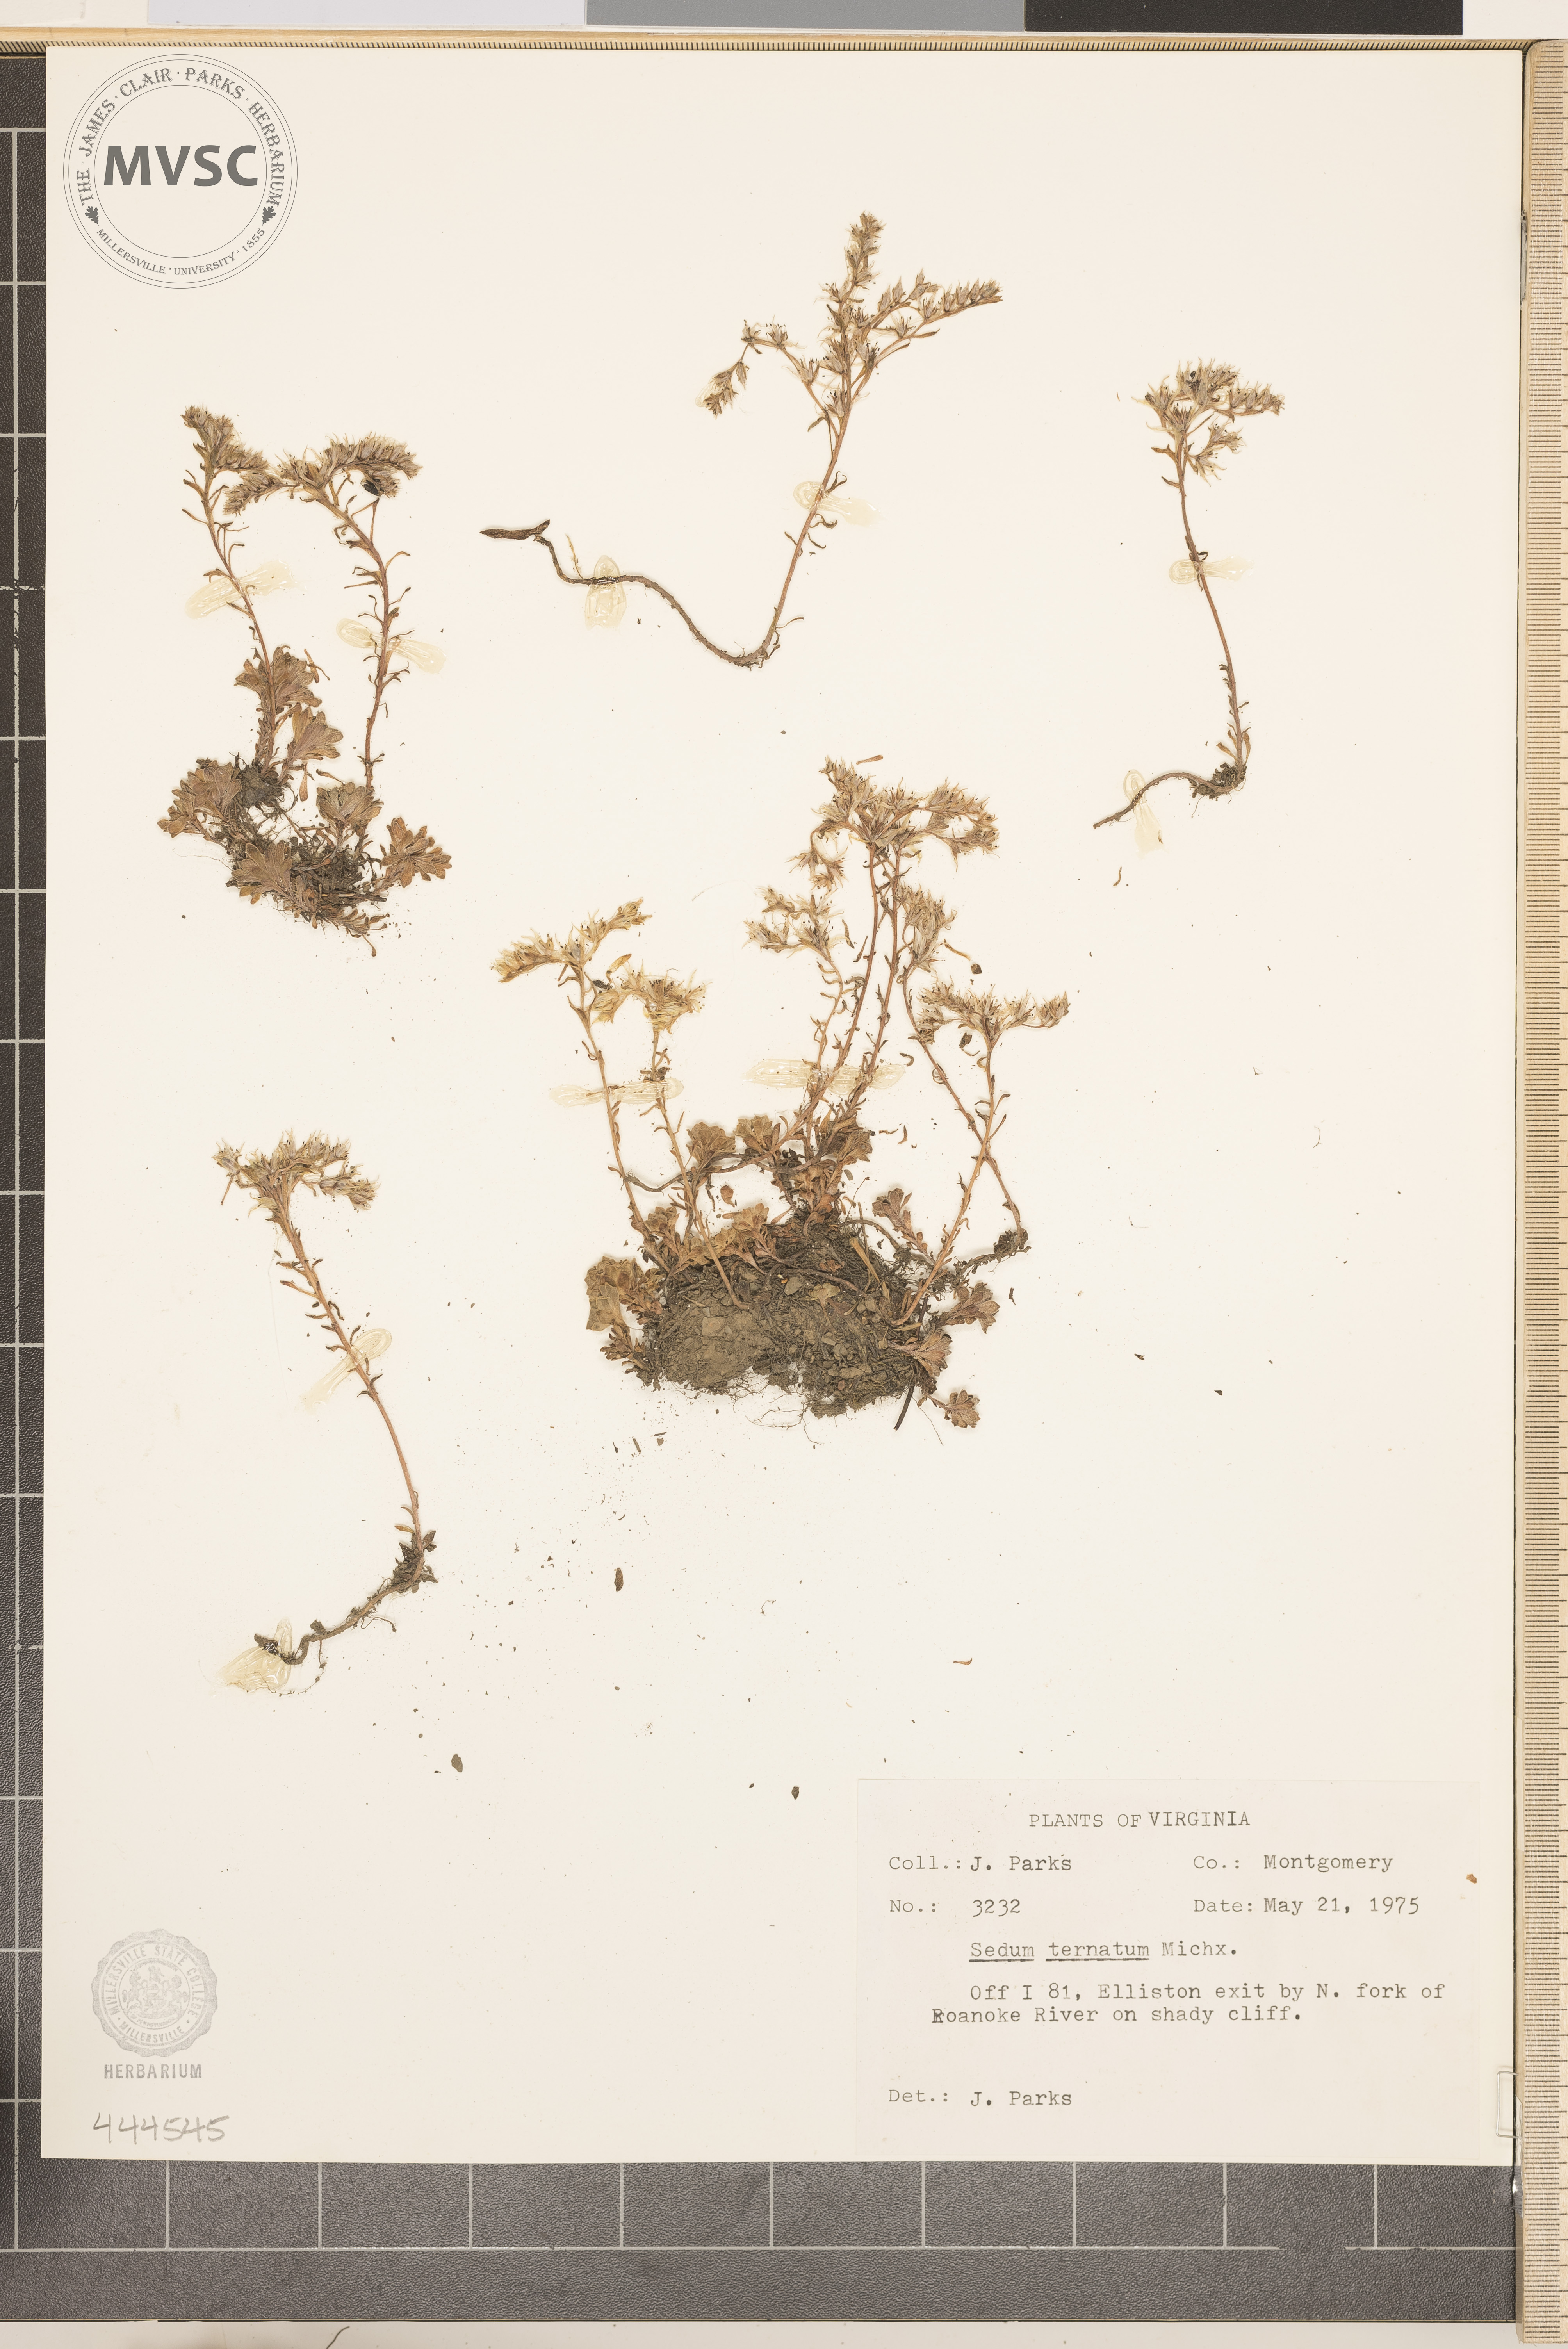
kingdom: Plantae
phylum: Tracheophyta
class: Magnoliopsida
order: Saxifragales
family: Crassulaceae
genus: Sedum
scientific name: Sedum ternatum
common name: Wild stonecrop
